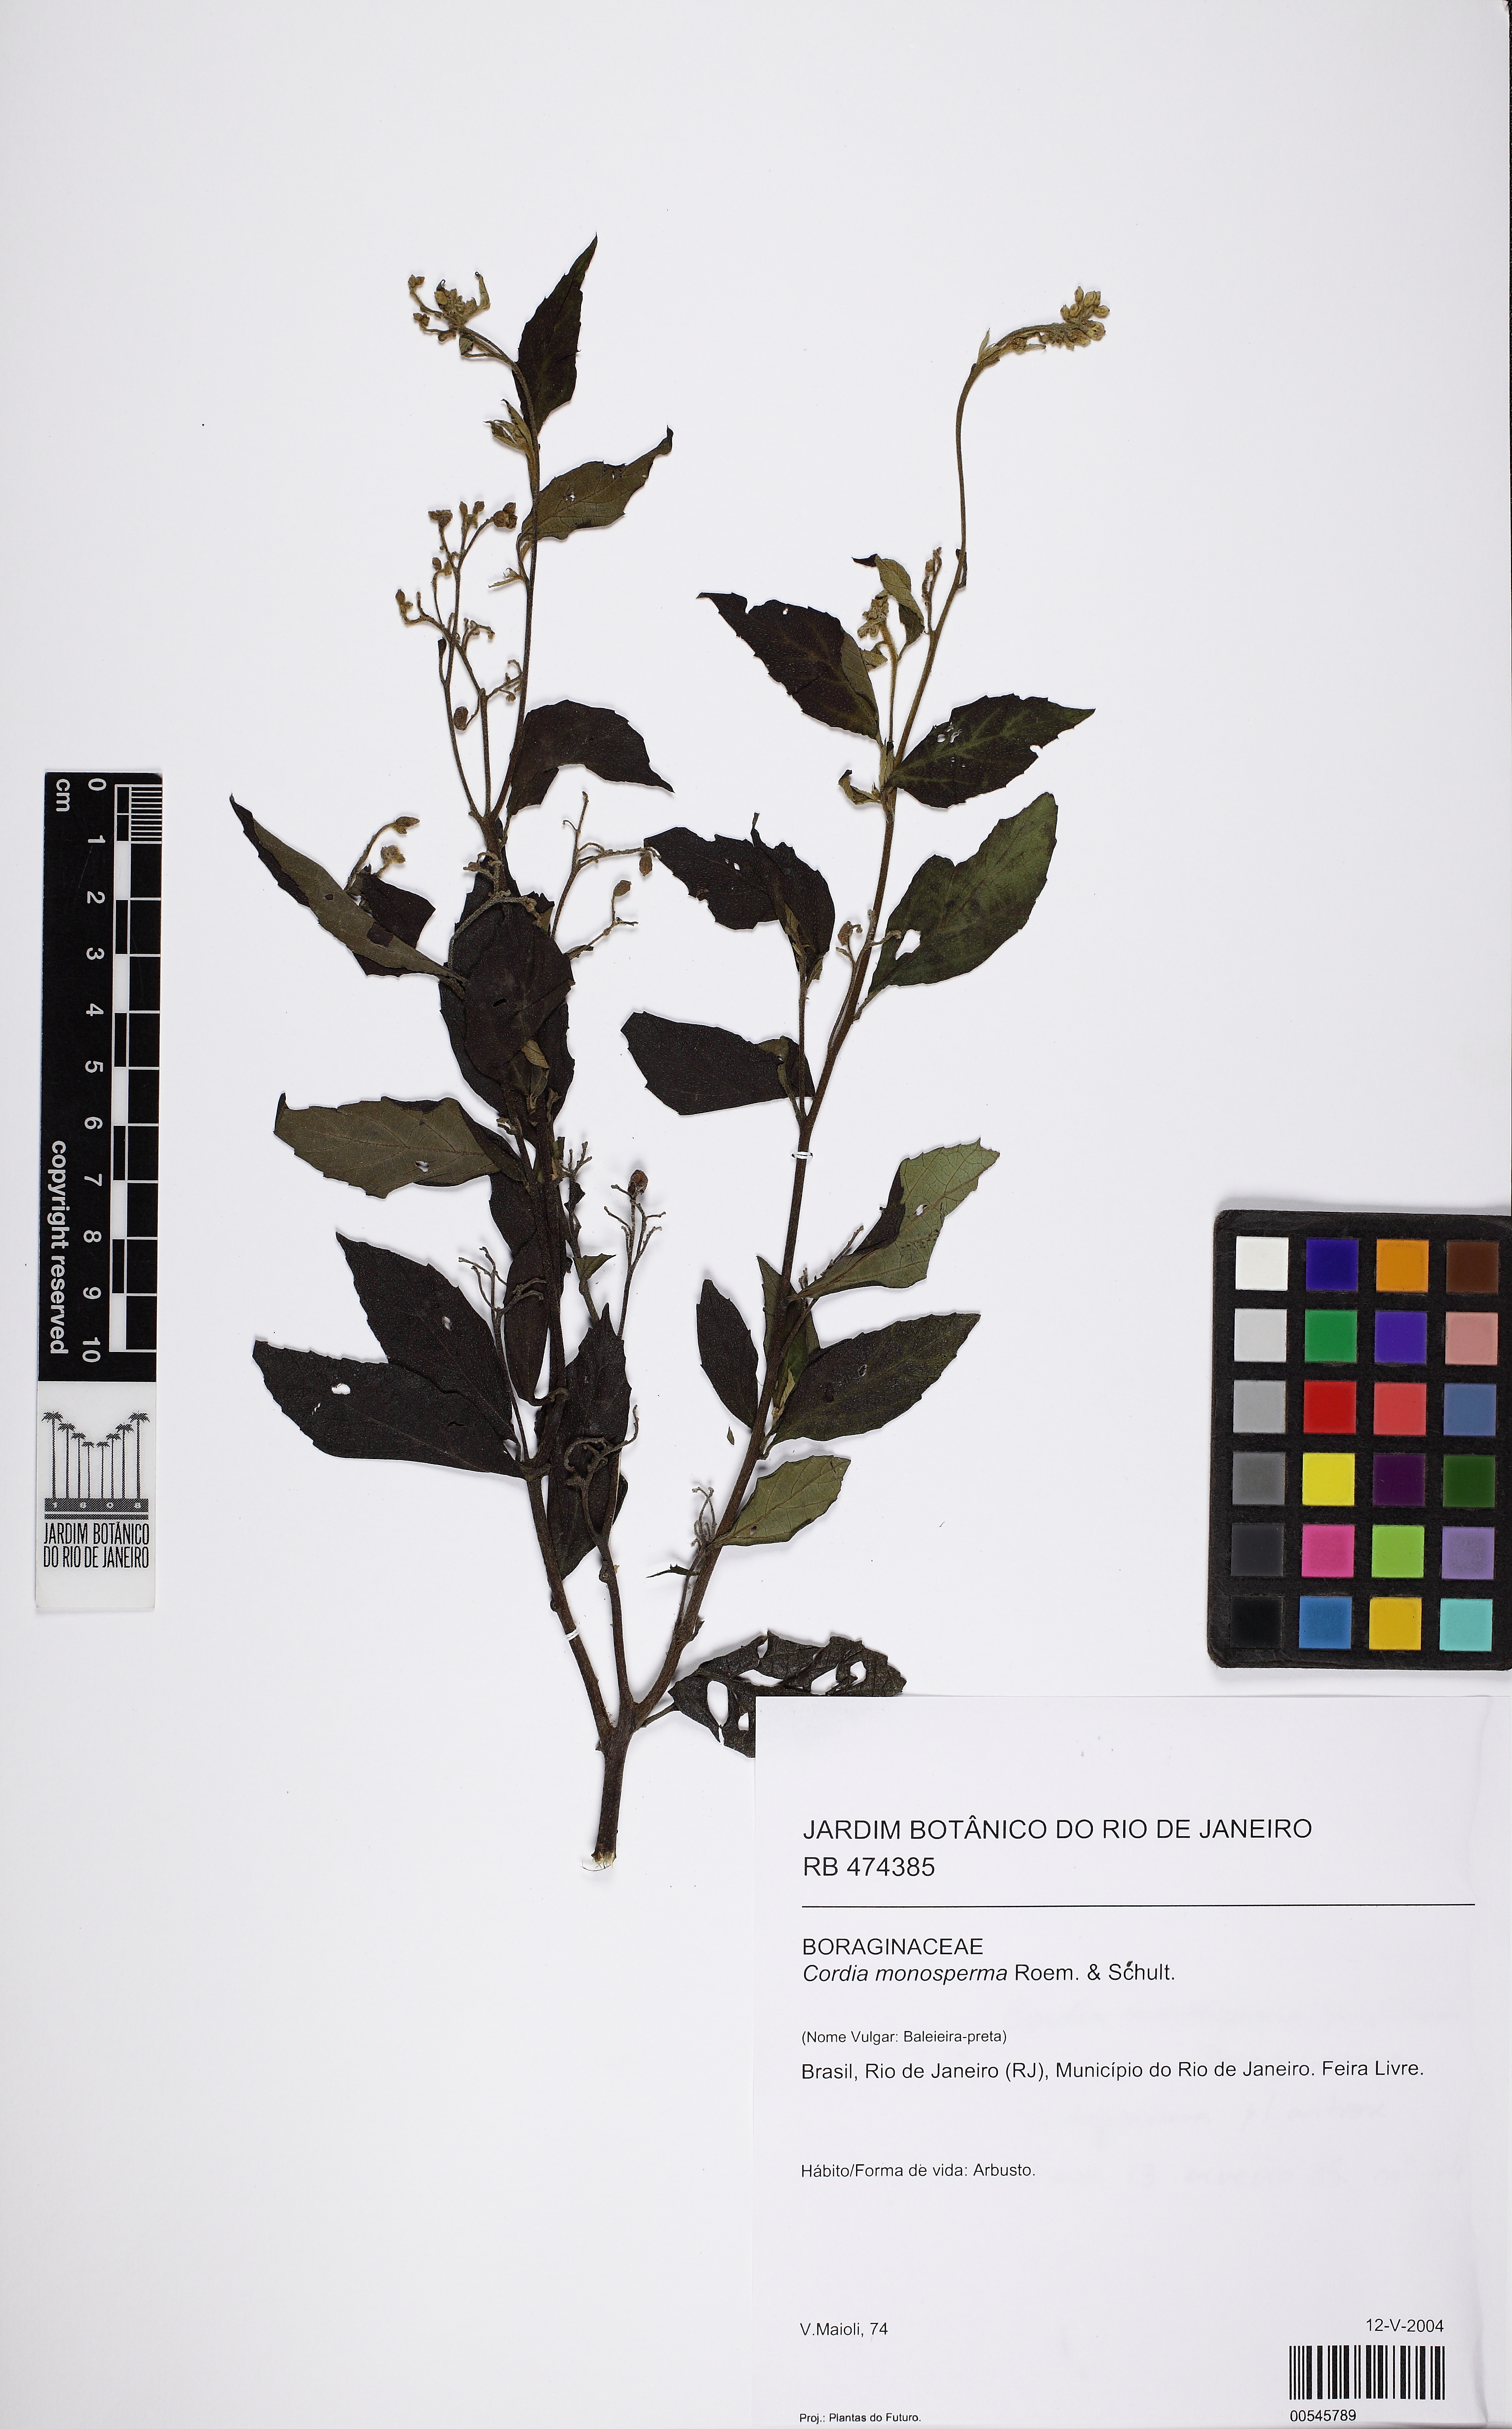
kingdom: Plantae
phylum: Tracheophyta
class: Magnoliopsida
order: Boraginales
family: Cordiaceae
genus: Varronia
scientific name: Varronia polycephala
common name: Black-sage
